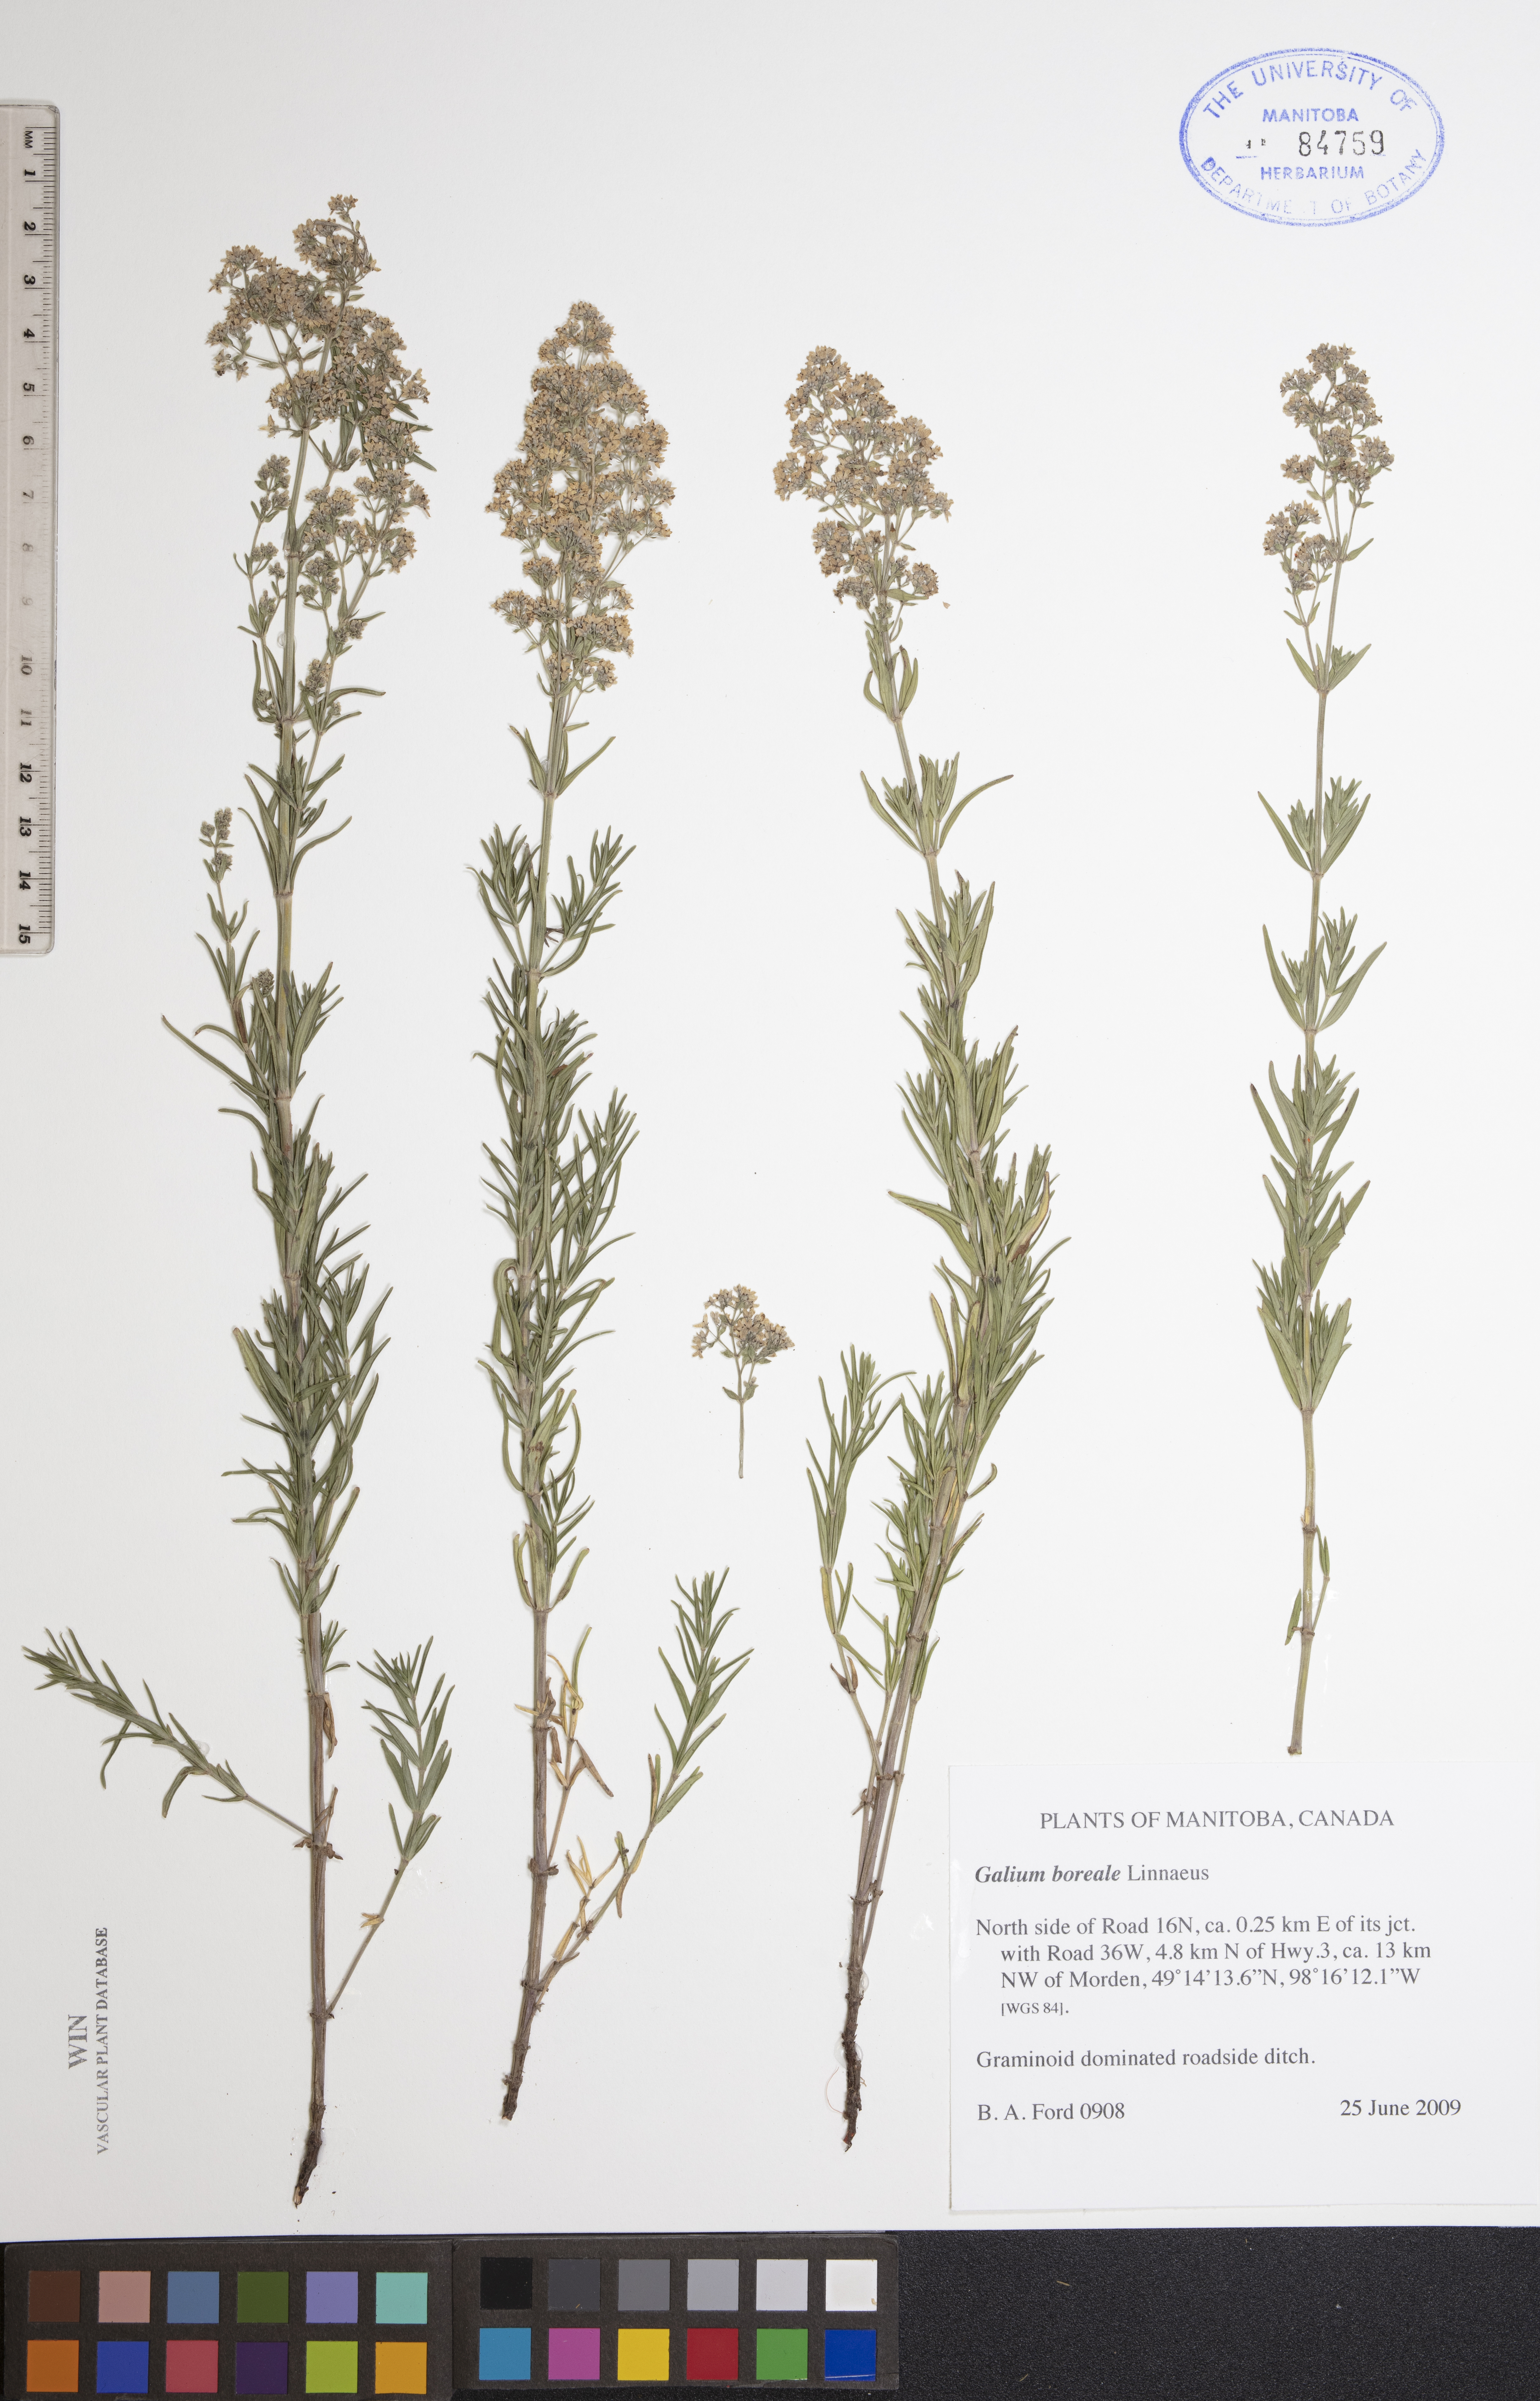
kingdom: Plantae
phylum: Tracheophyta
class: Magnoliopsida
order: Gentianales
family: Rubiaceae
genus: Galium
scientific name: Galium boreale
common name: Northern bedstraw
